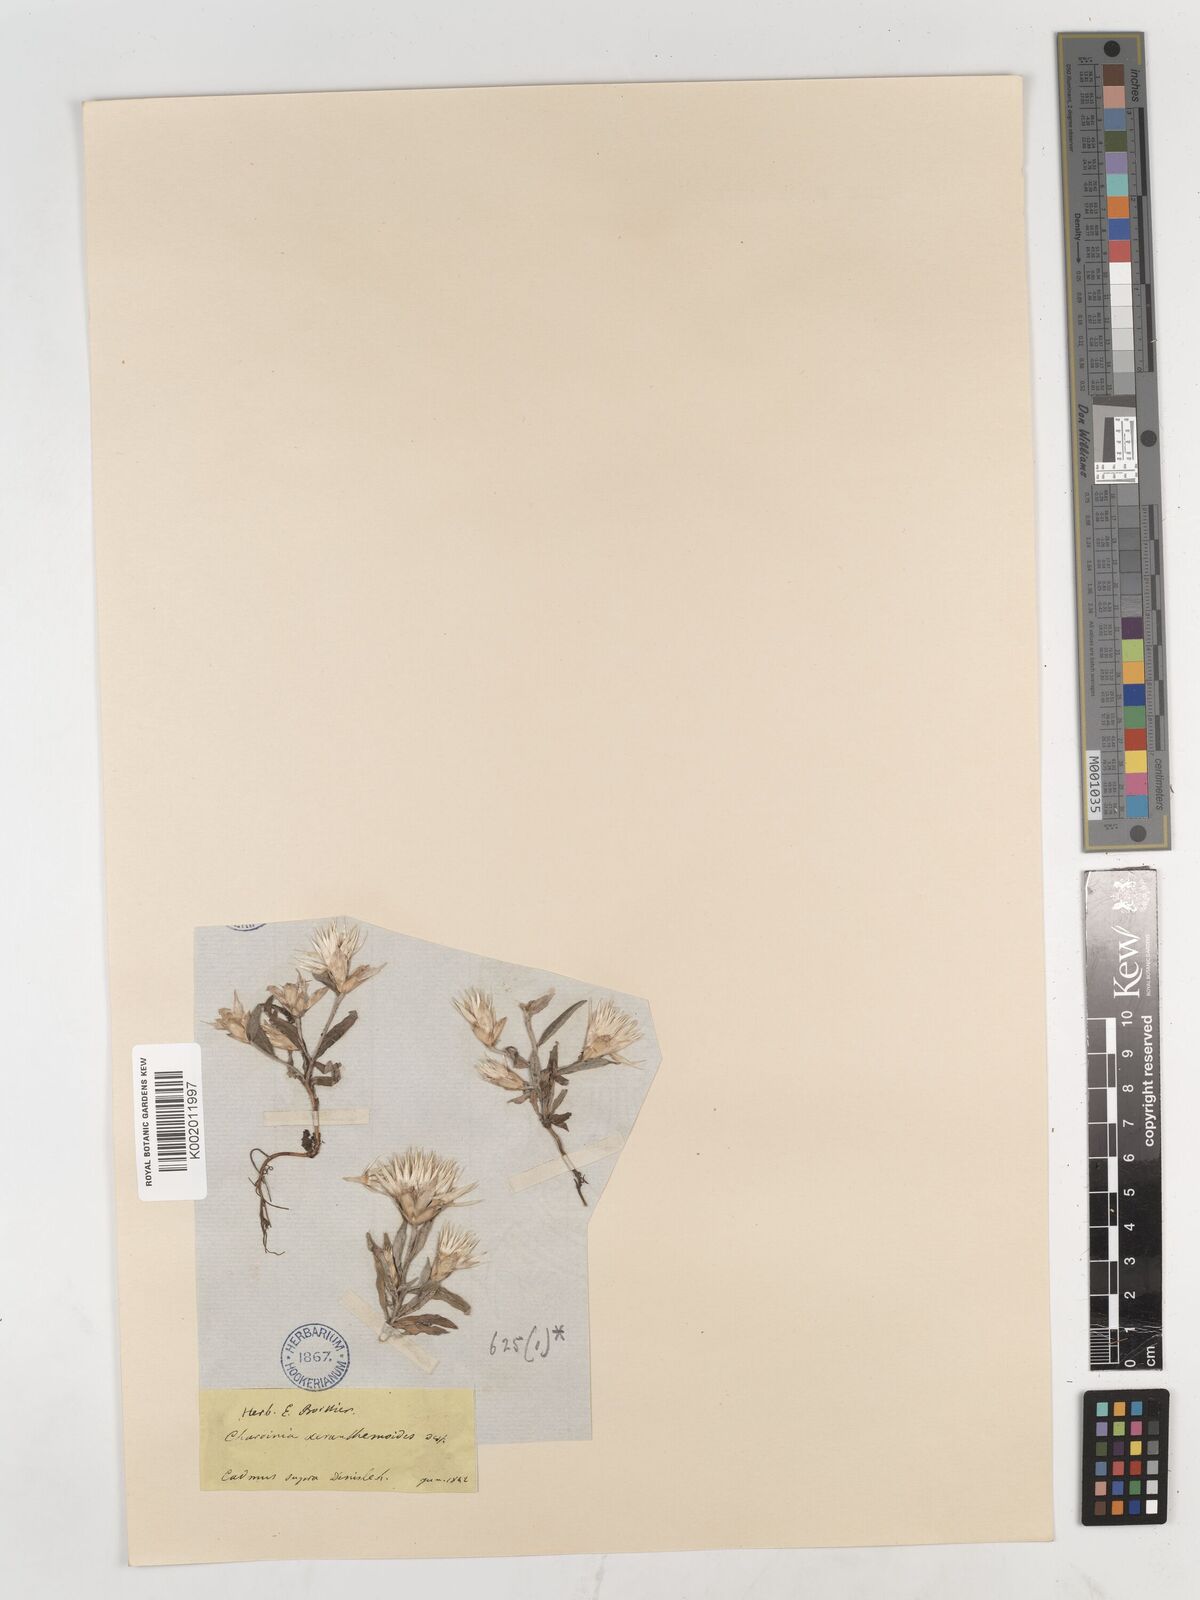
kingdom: Plantae
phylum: Tracheophyta
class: Magnoliopsida
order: Asterales
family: Asteraceae
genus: Chardinia
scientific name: Chardinia orientalis
